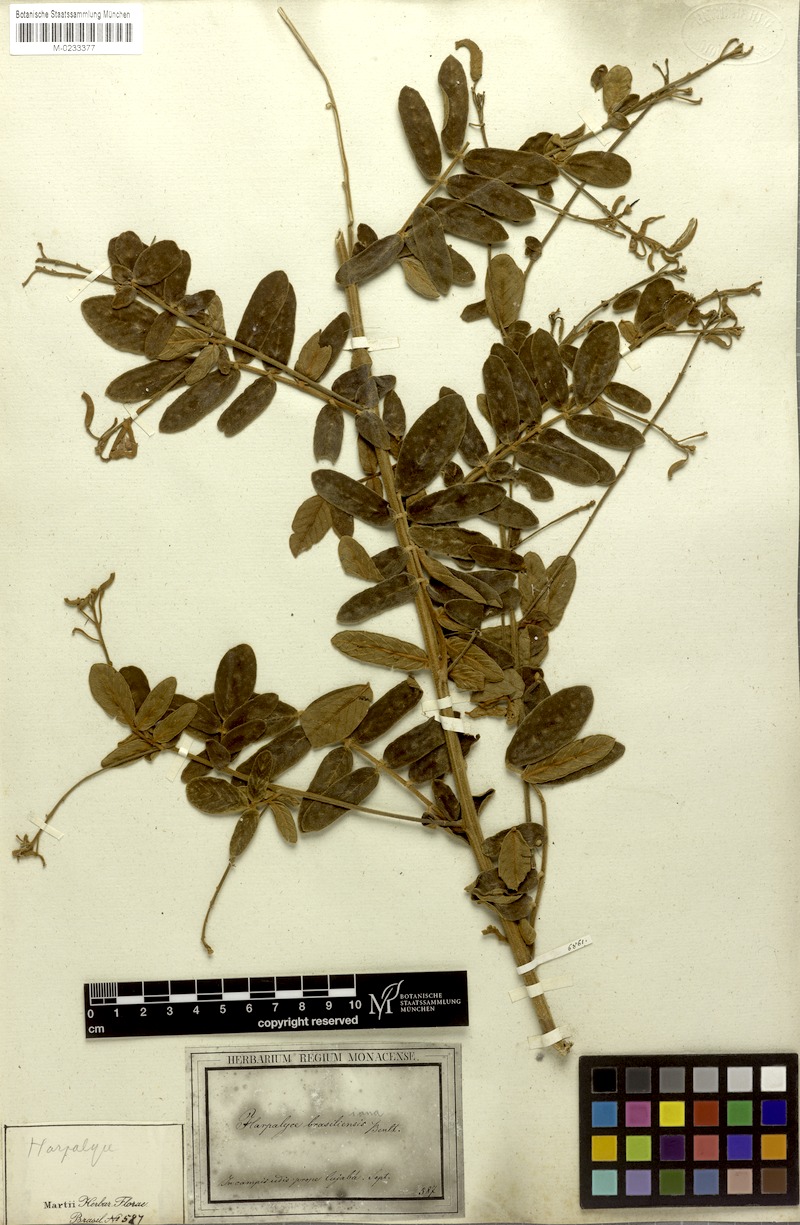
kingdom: Plantae
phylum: Tracheophyta
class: Magnoliopsida
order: Fabales
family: Fabaceae
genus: Harpalyce
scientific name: Harpalyce brasiliana
